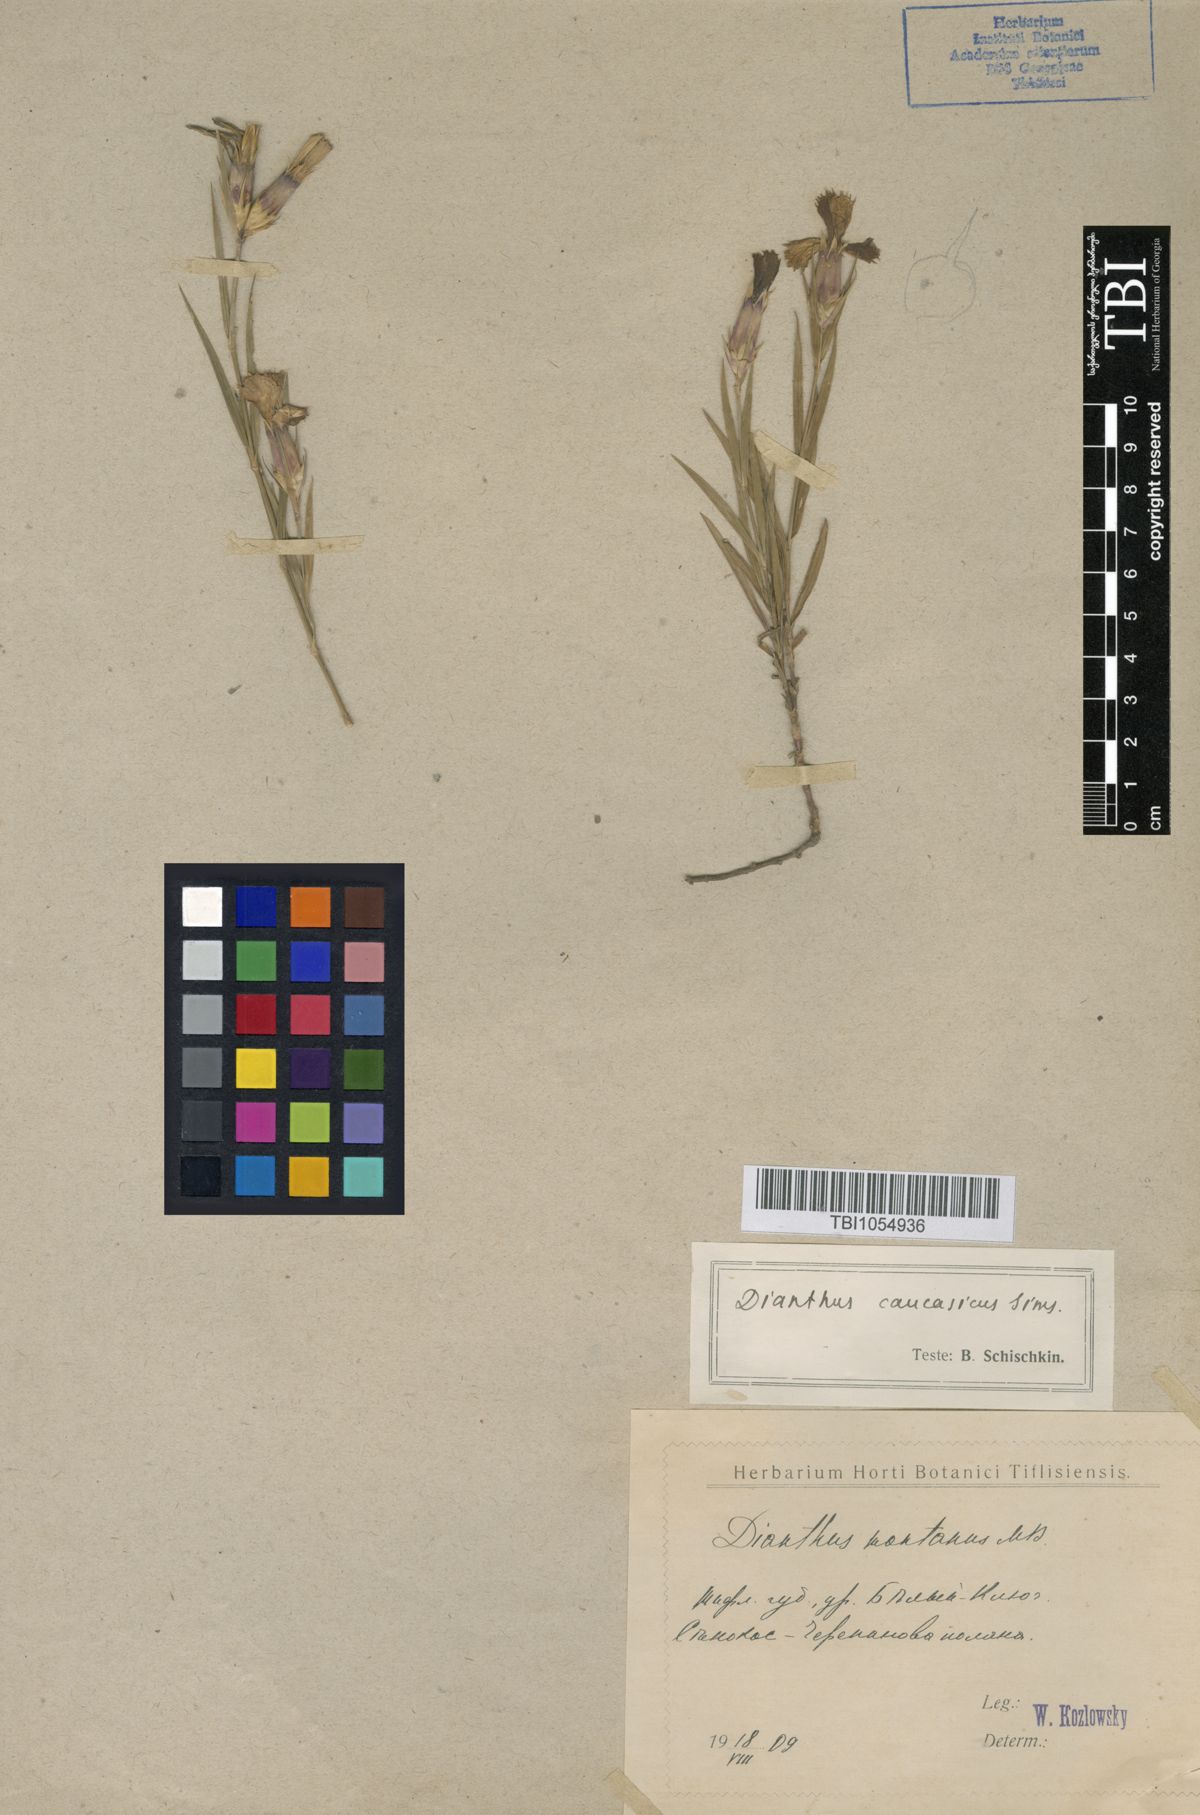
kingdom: Plantae
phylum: Tracheophyta
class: Magnoliopsida
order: Caryophyllales
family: Caryophyllaceae
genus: Dianthus
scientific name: Dianthus caucaseus
